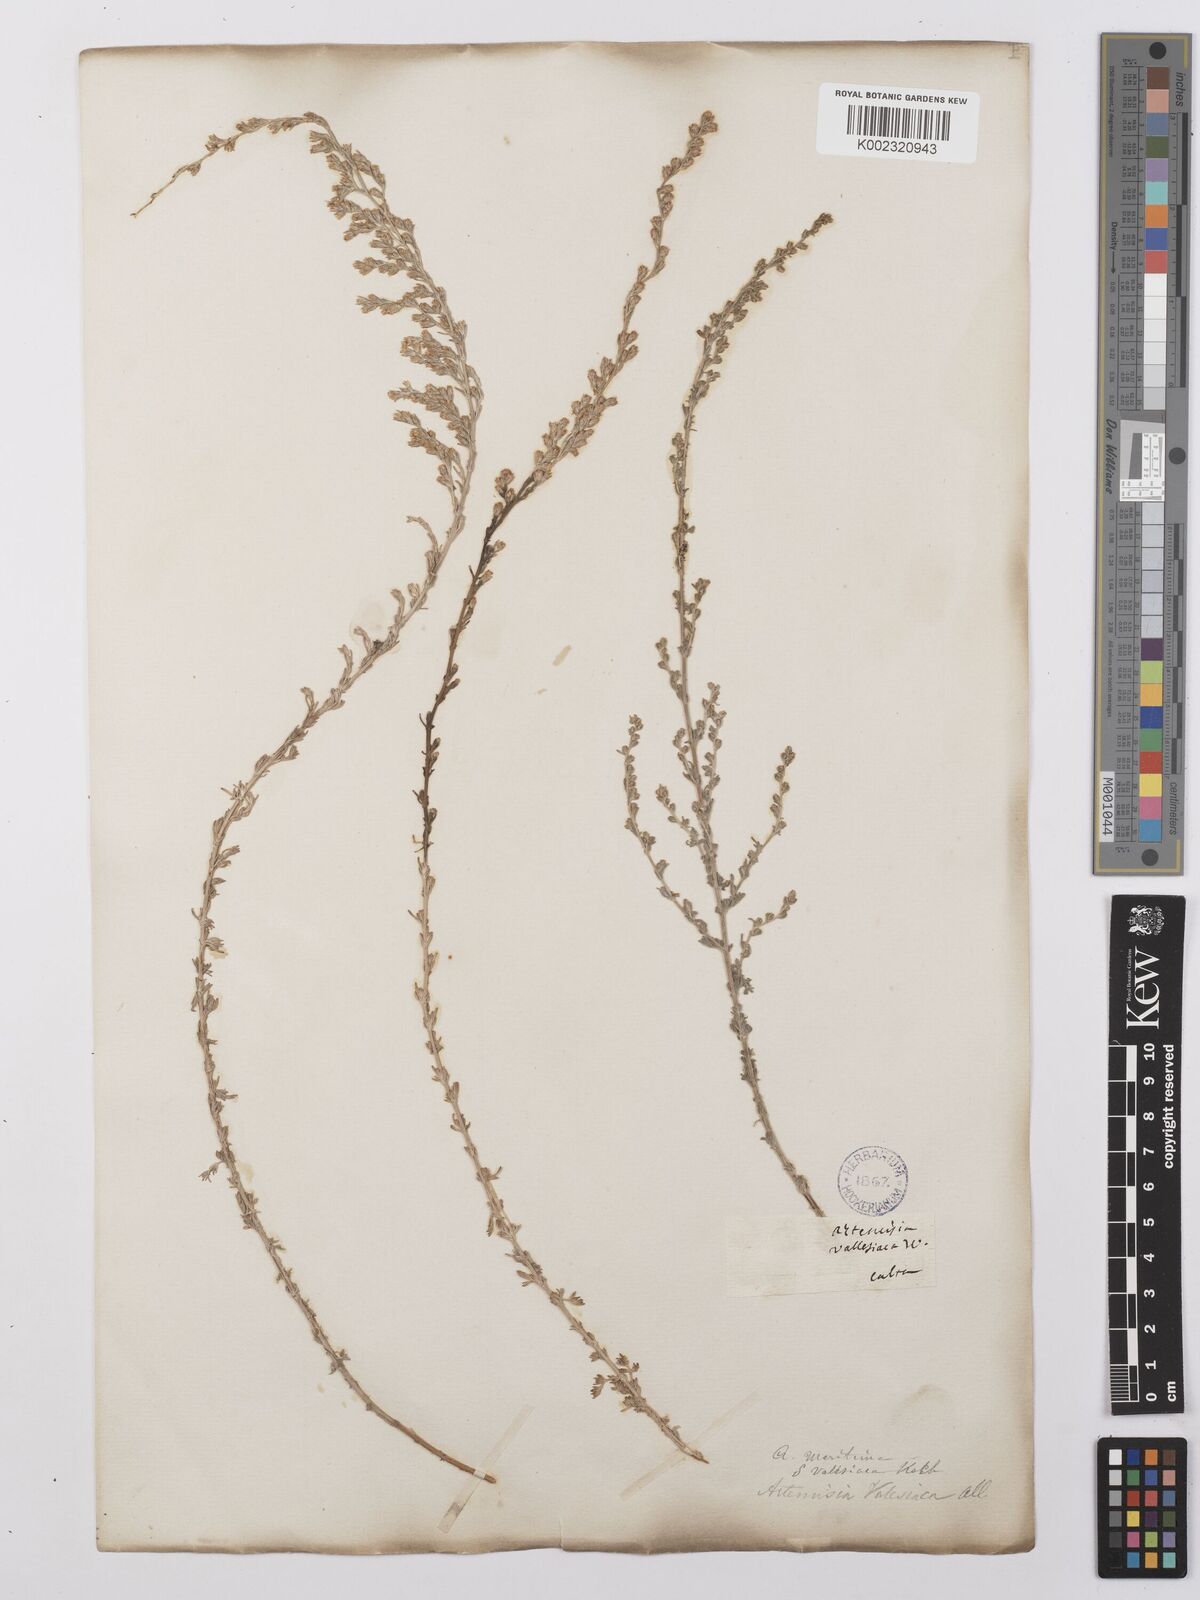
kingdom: Plantae
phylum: Tracheophyta
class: Magnoliopsida
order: Asterales
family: Asteraceae
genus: Artemisia
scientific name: Artemisia vallesiaca
